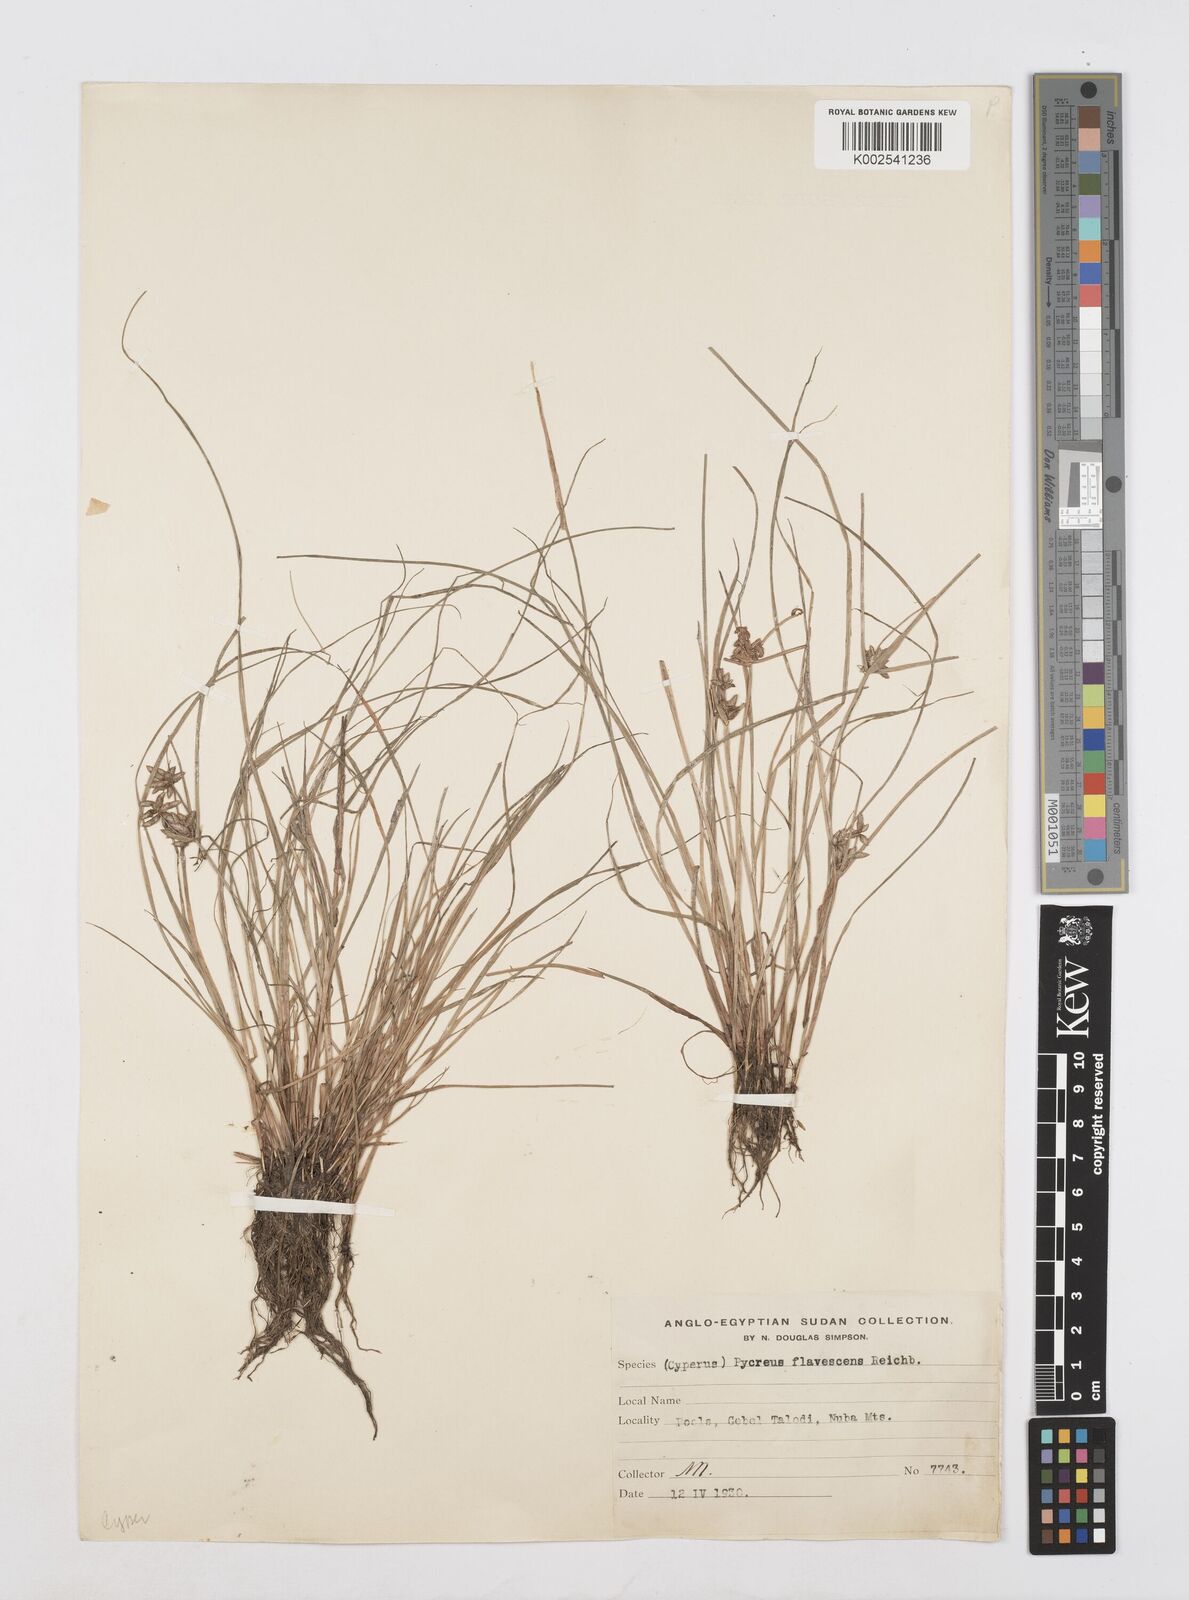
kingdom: Plantae
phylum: Tracheophyta
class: Liliopsida
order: Poales
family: Cyperaceae
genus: Cyperus
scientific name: Cyperus flavescens
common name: Yellow galingale
